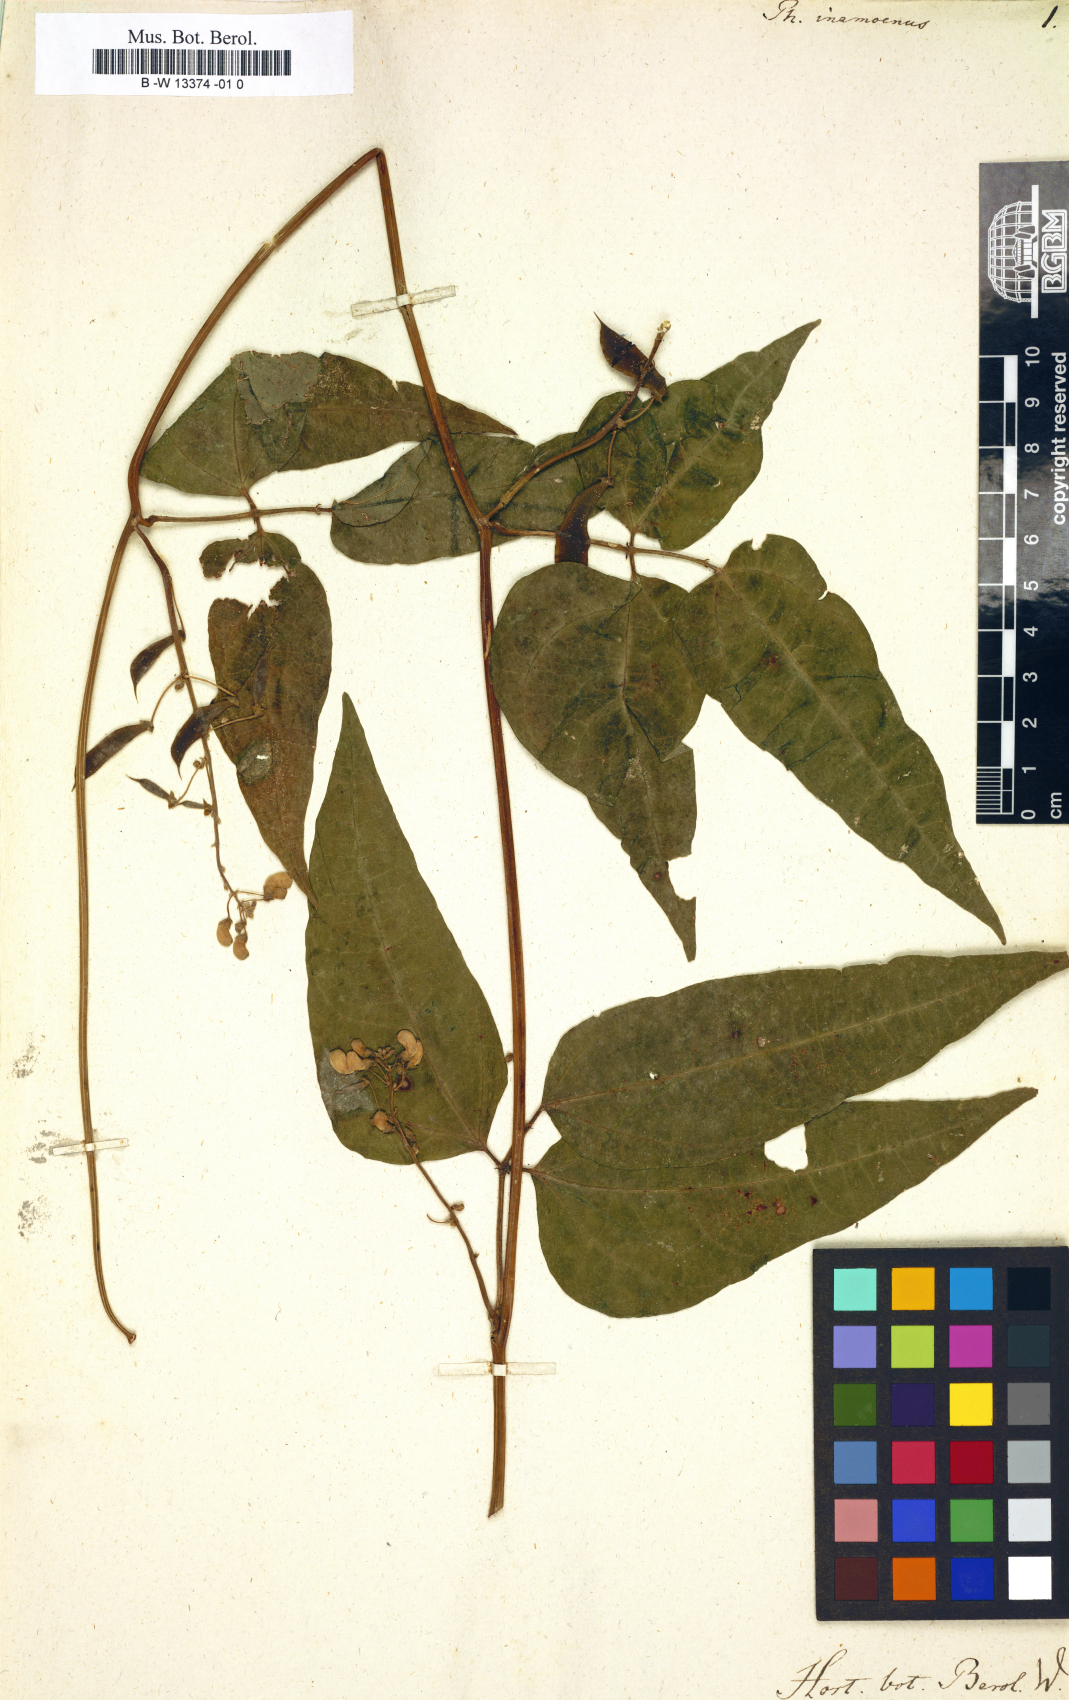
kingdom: Plantae
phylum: Tracheophyta
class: Magnoliopsida
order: Fabales
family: Fabaceae
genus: Phaseolus
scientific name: Phaseolus lunatus
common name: Sieva bean
